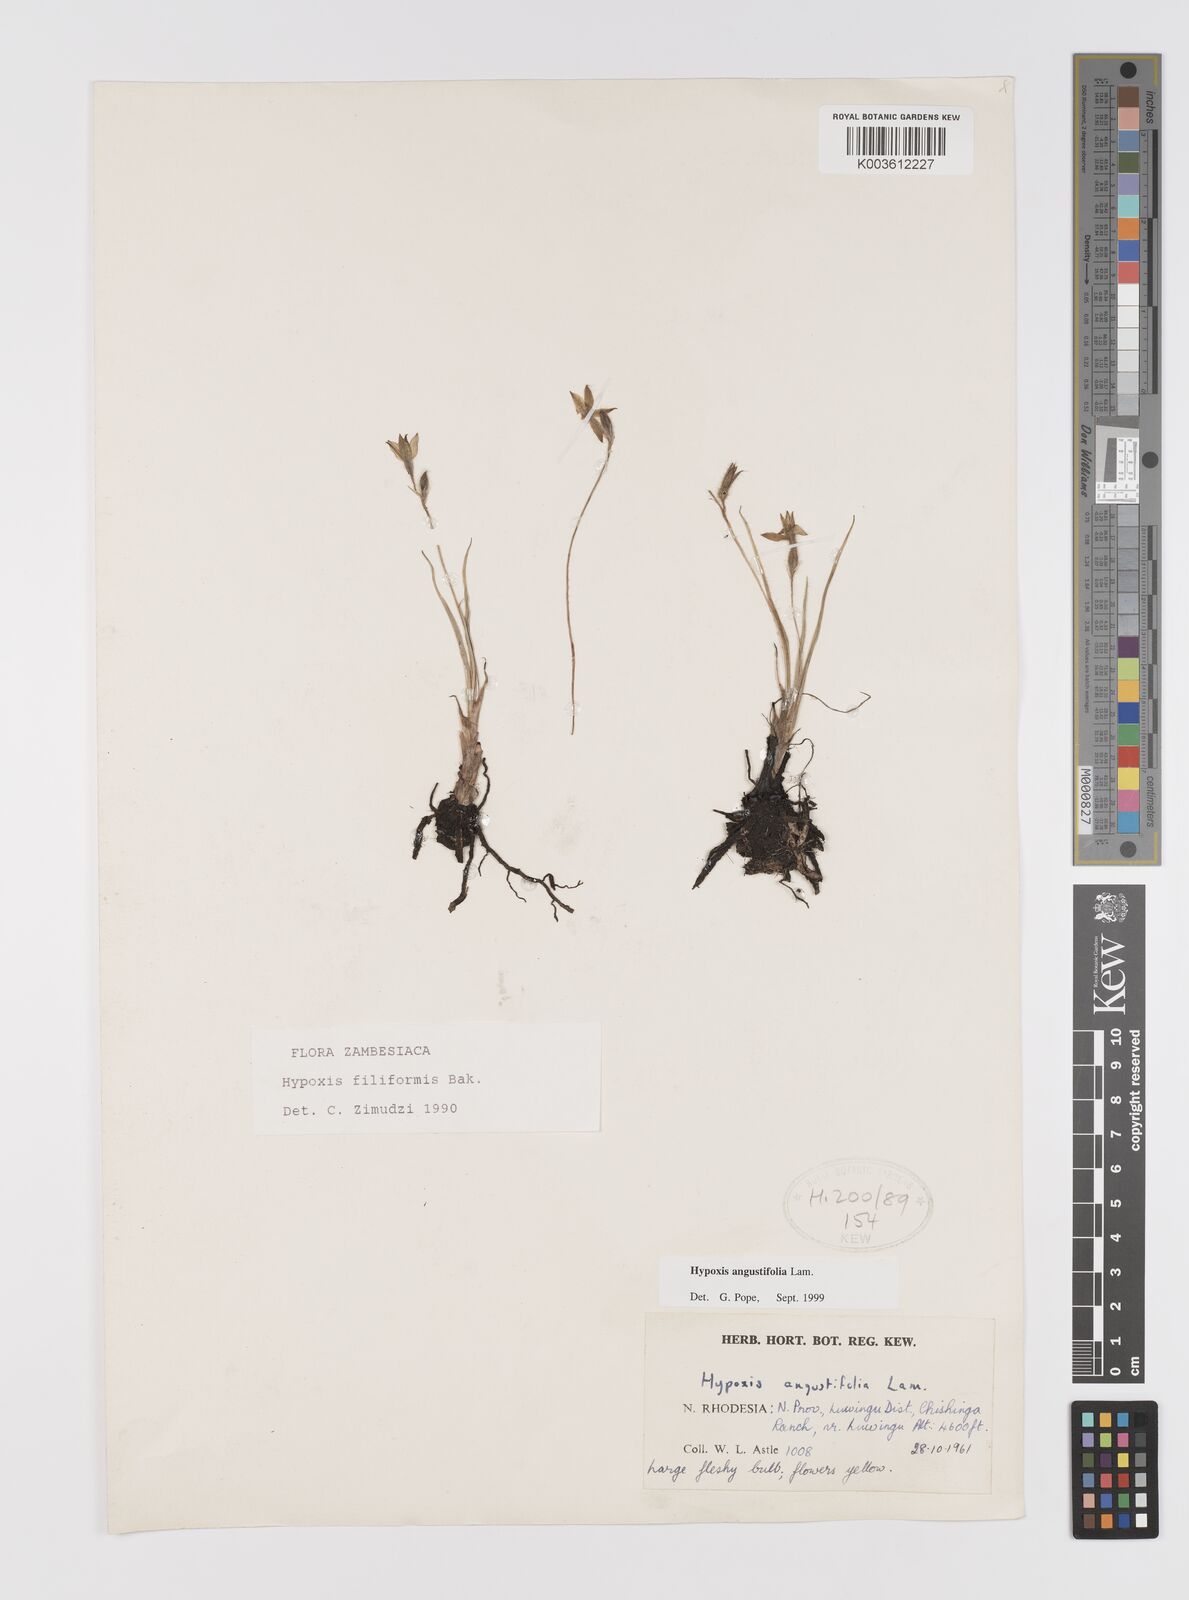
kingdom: Plantae
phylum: Tracheophyta
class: Liliopsida
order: Asparagales
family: Hypoxidaceae
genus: Hypoxis
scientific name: Hypoxis angustifolia
